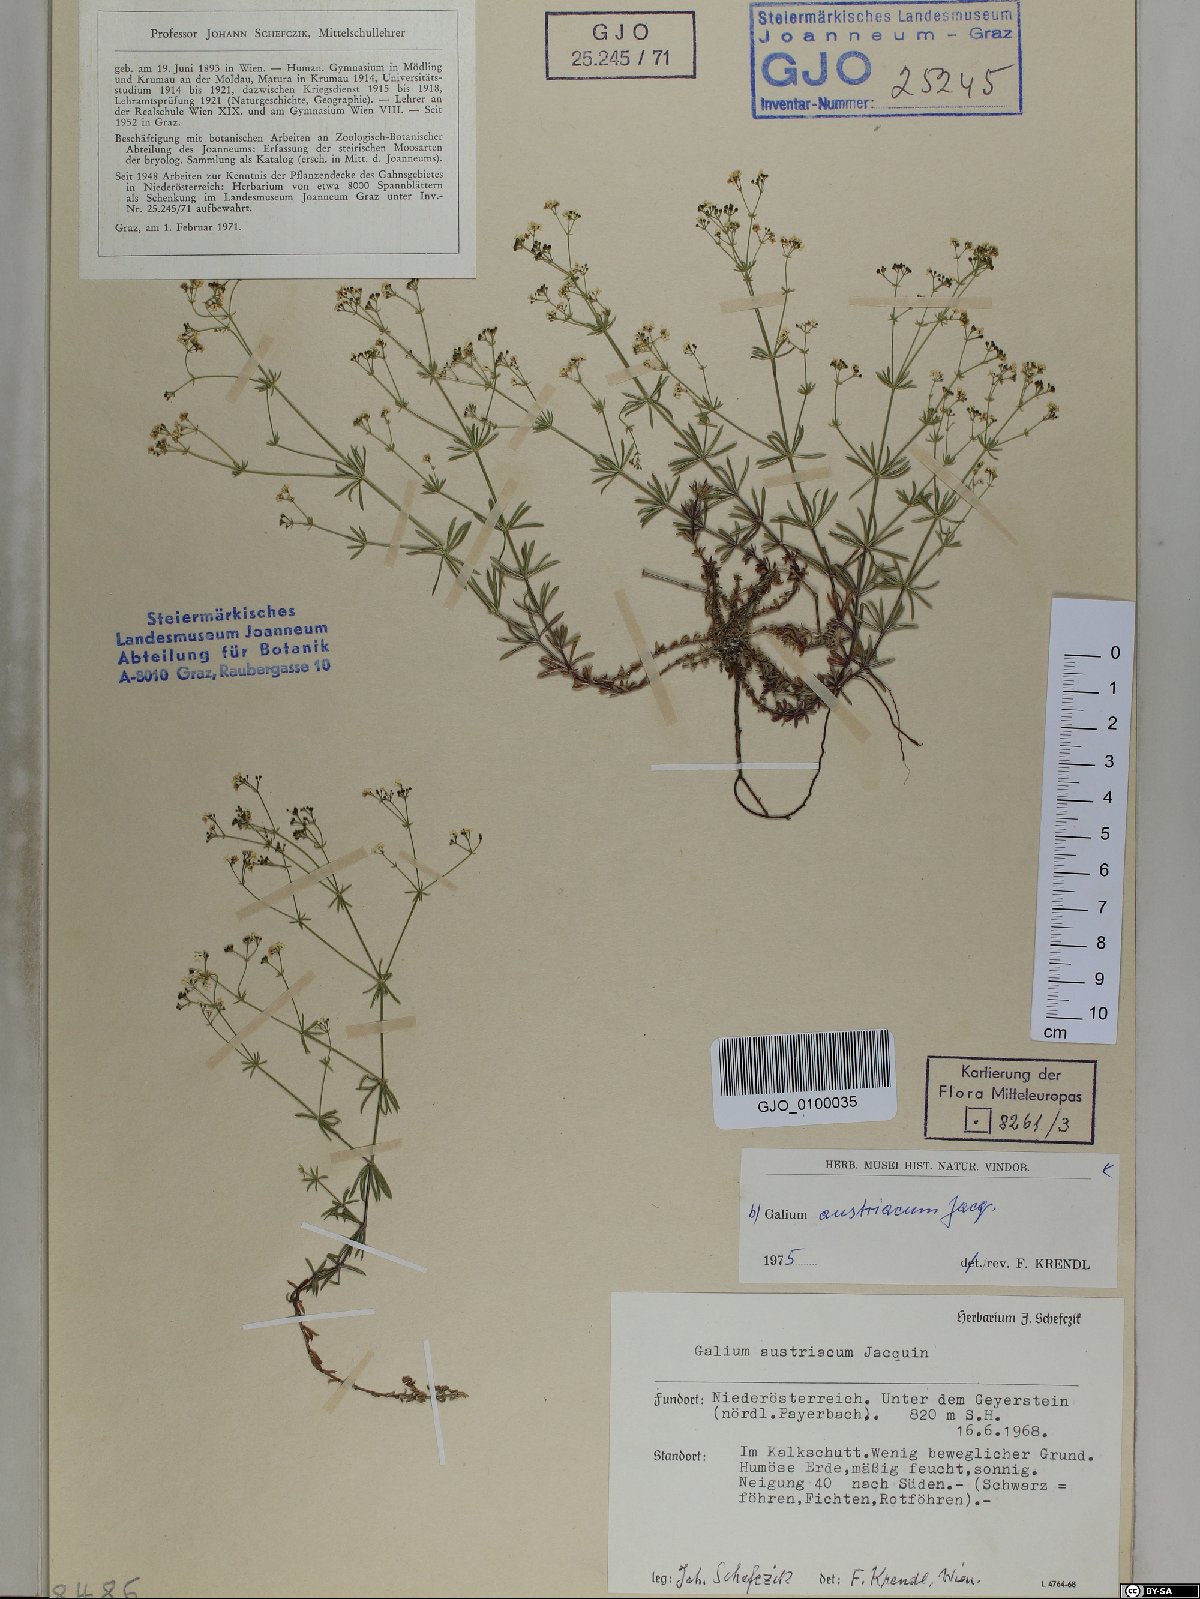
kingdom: Plantae
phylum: Tracheophyta
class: Magnoliopsida
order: Gentianales
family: Rubiaceae
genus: Galium
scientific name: Galium austriacum
